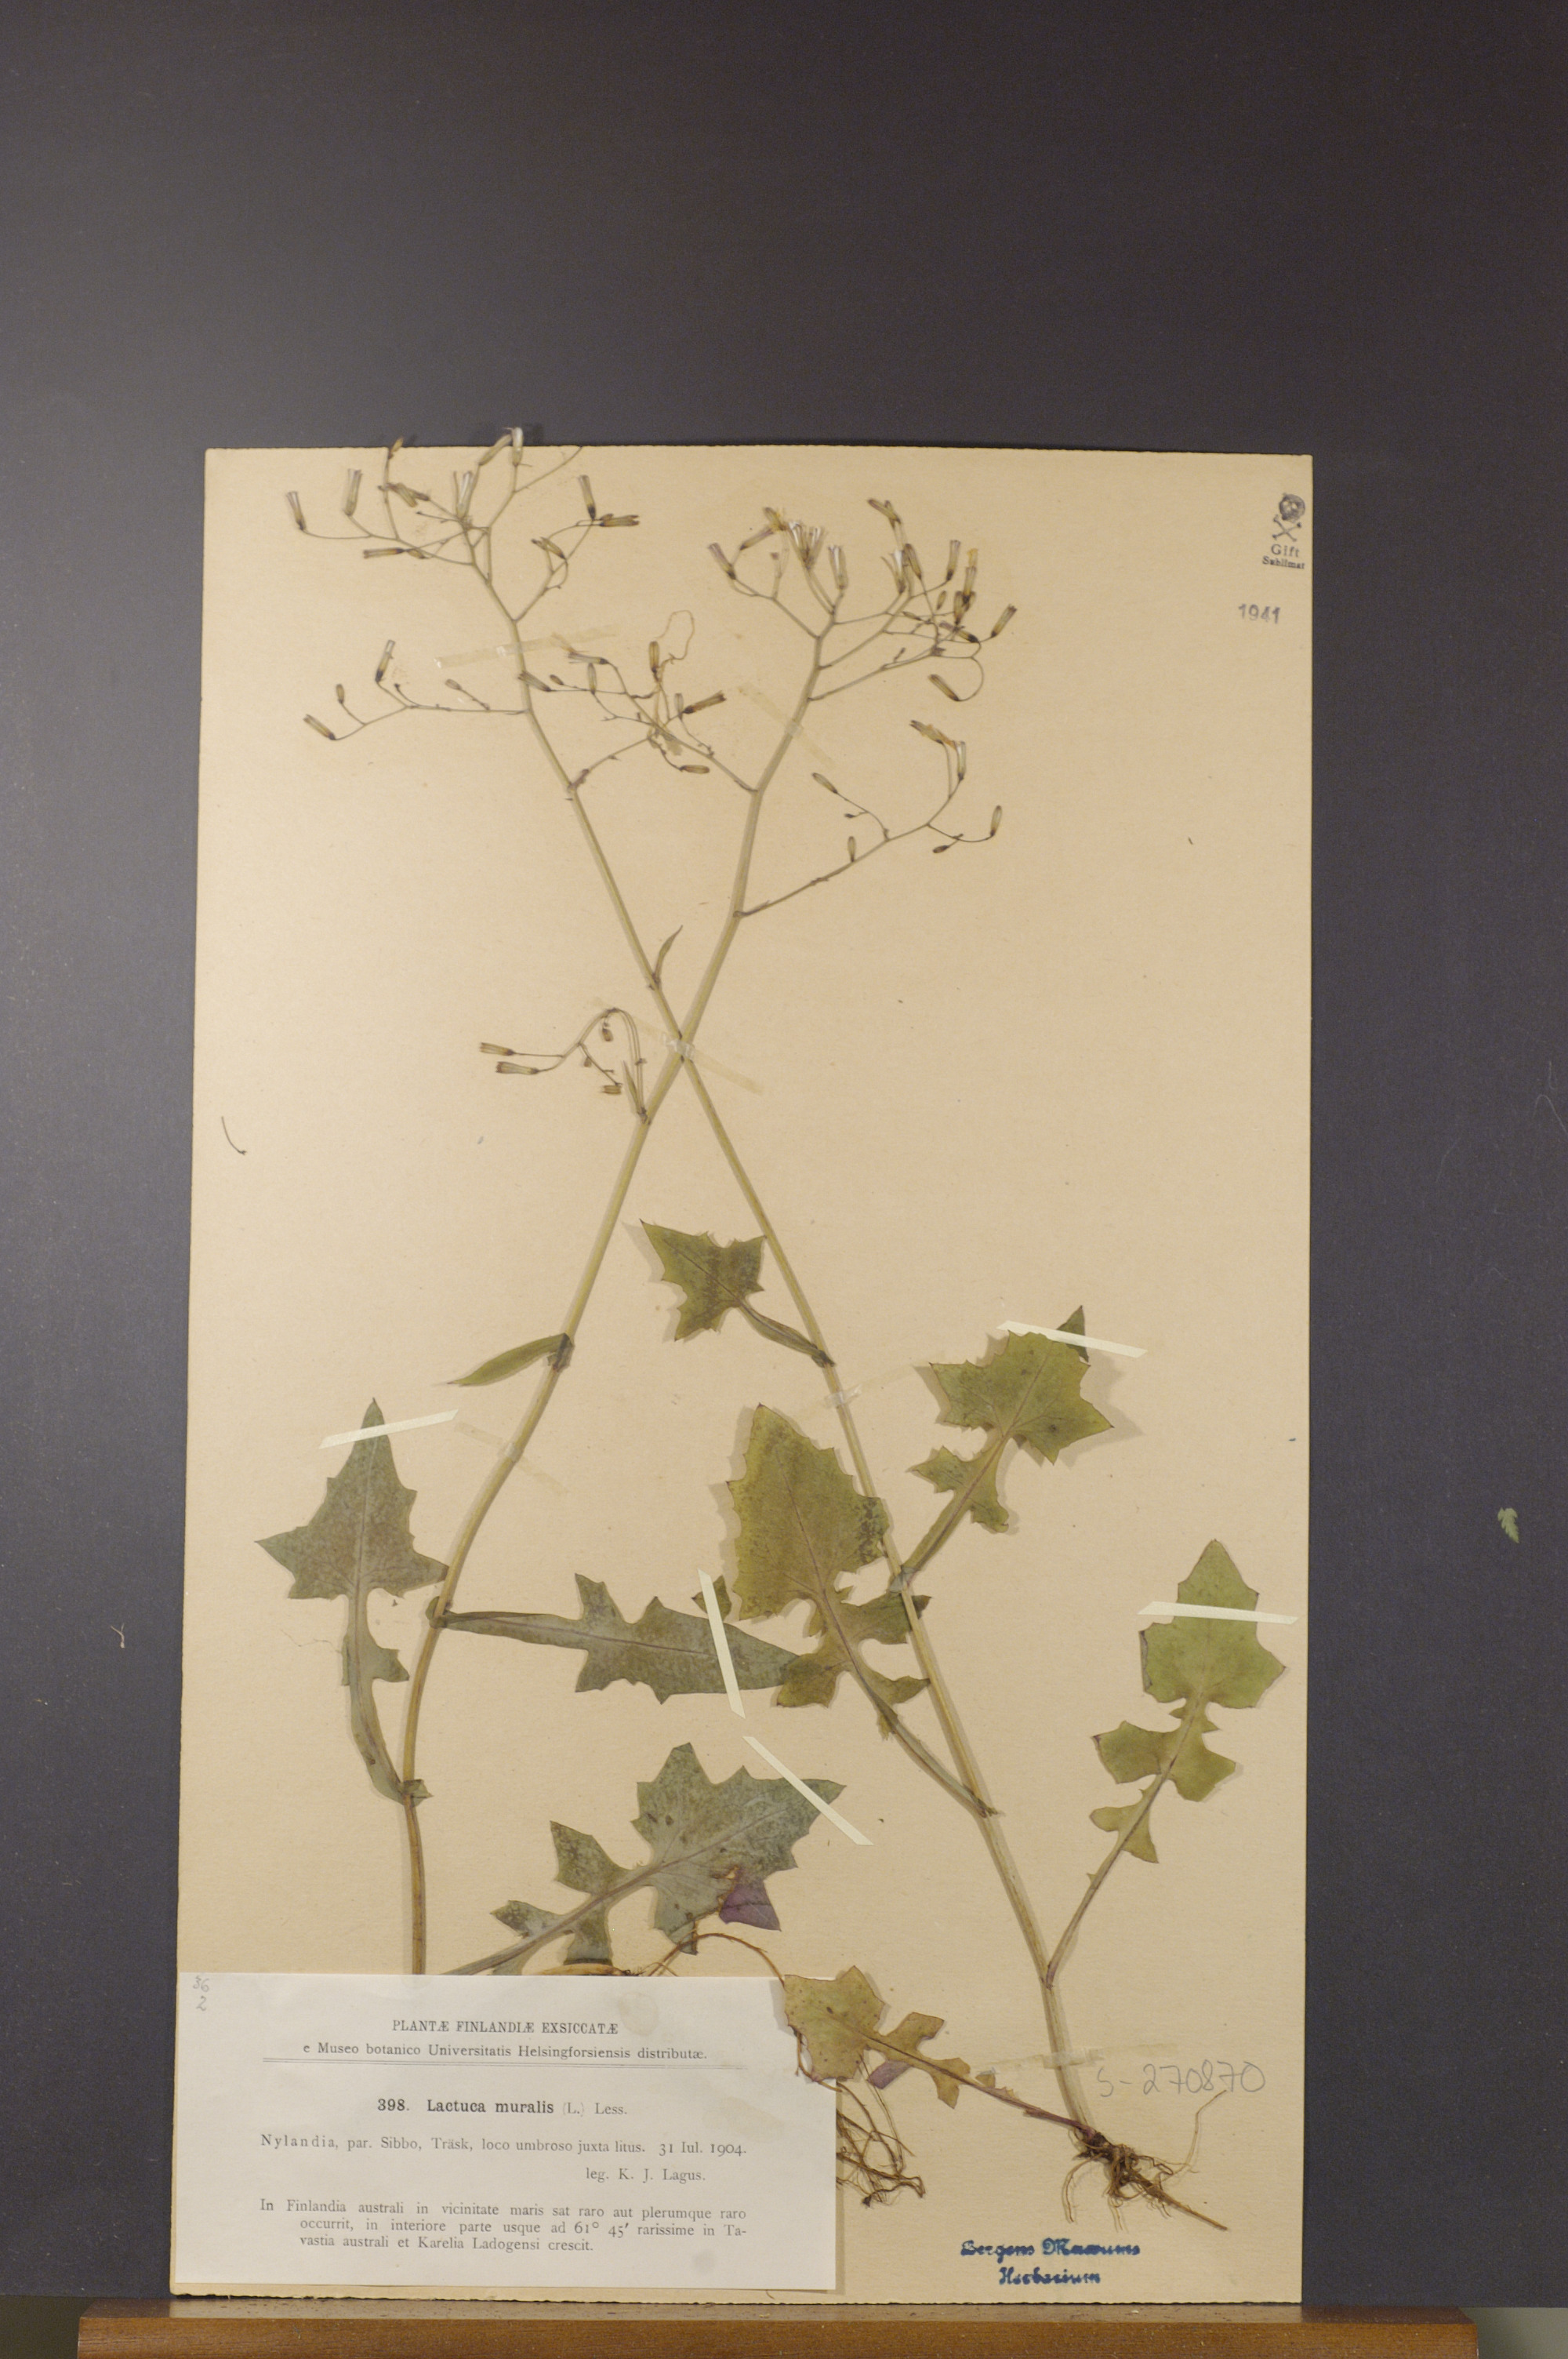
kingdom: Plantae
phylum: Tracheophyta
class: Magnoliopsida
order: Asterales
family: Asteraceae
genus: Mycelis
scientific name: Mycelis muralis
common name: Wall lettuce
